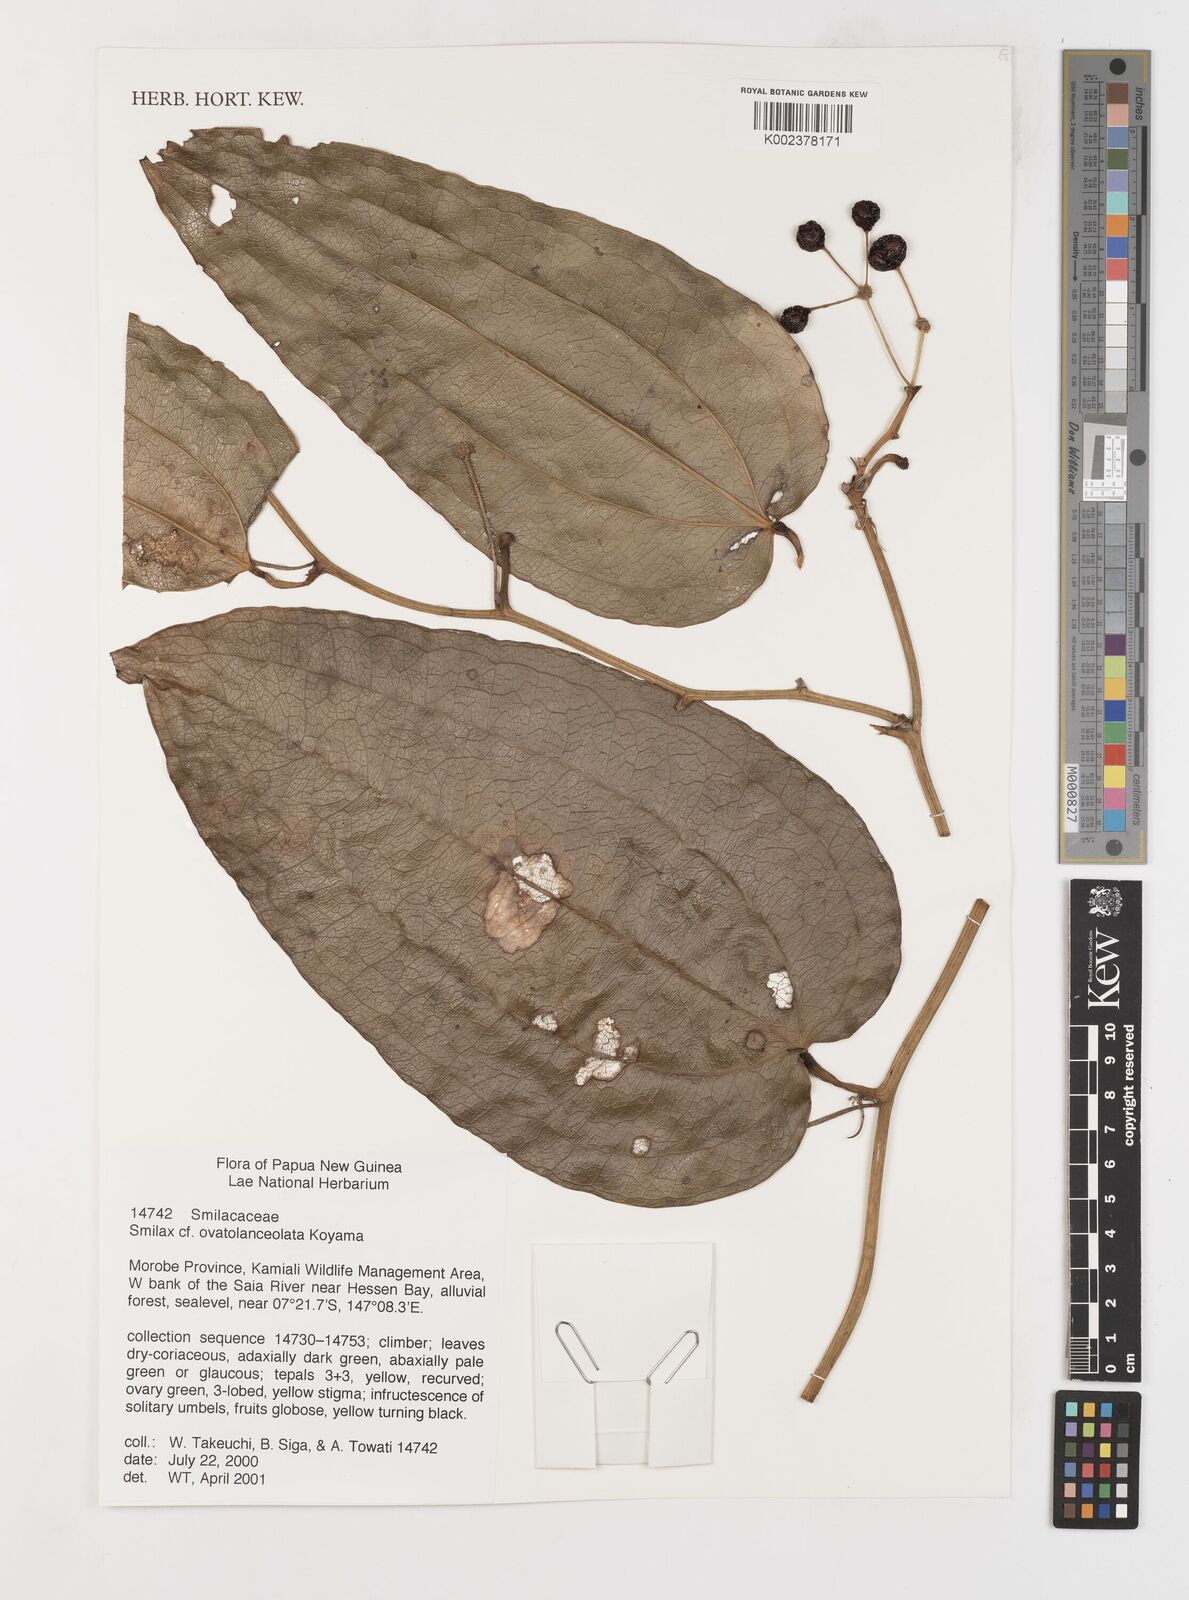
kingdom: Plantae
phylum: Tracheophyta
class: Liliopsida
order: Liliales
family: Smilacaceae
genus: Smilax
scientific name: Smilax ovatolanceolata
